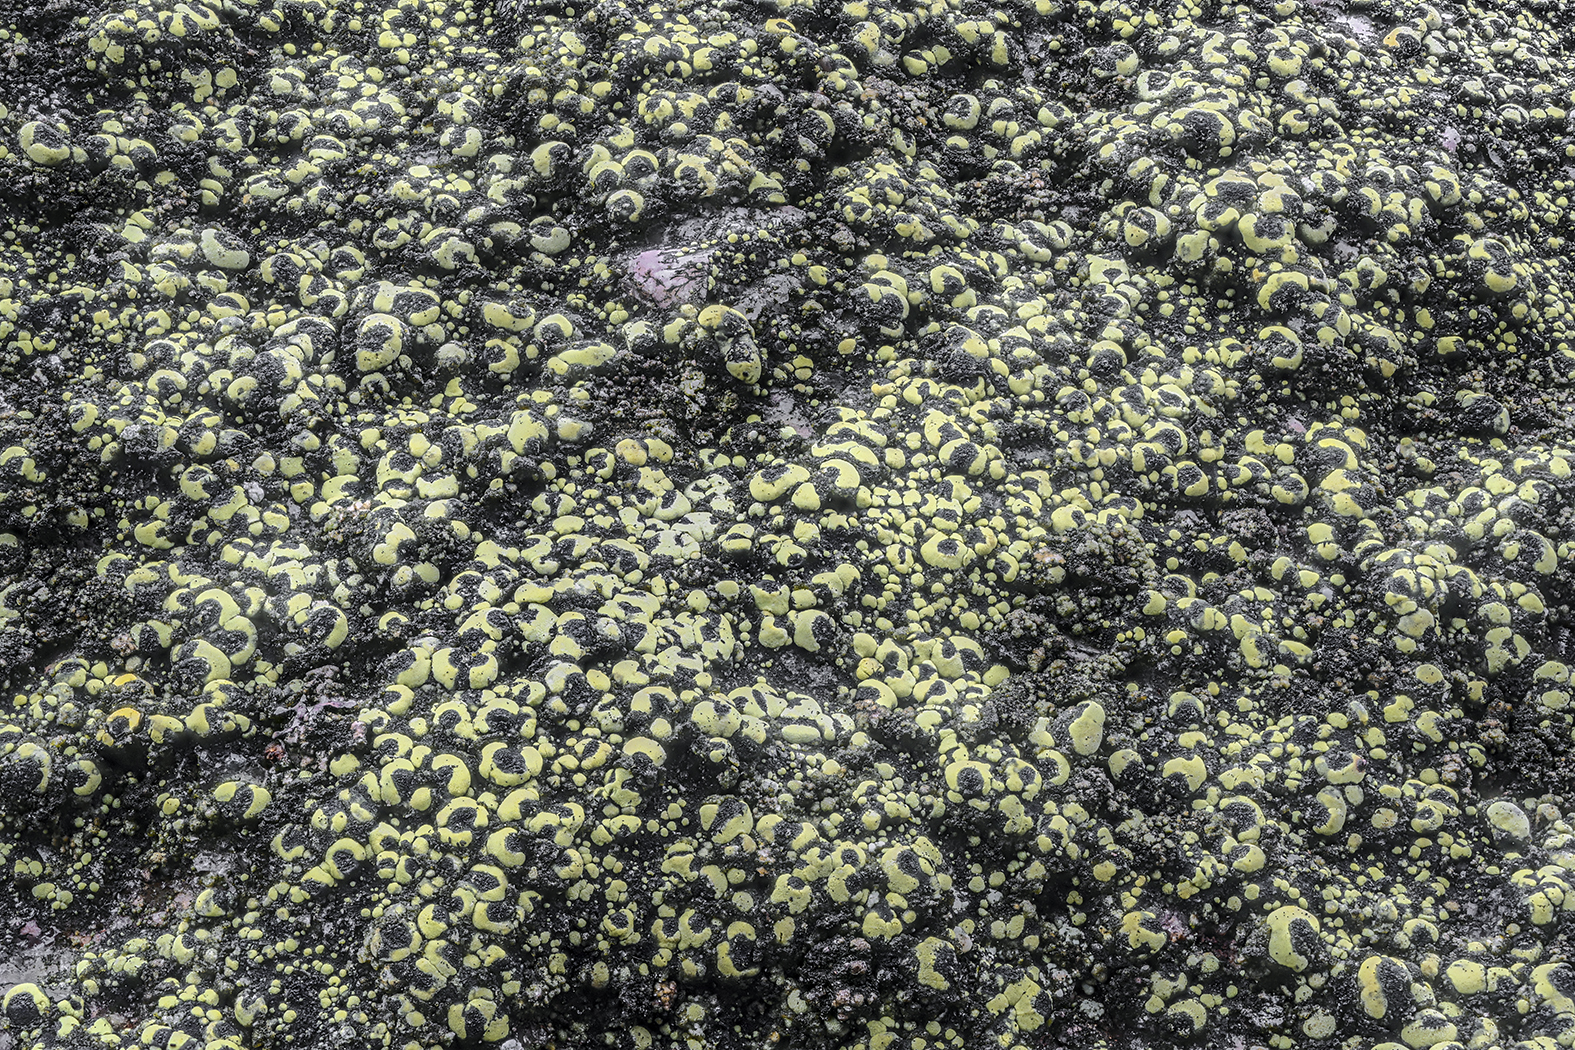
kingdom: Fungi
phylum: Ascomycota
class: Lecanoromycetes
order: Rhizocarpales
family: Rhizocarpaceae
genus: Rhizocarpon
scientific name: Rhizocarpon lecanorinum
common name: krave-landkortlav
